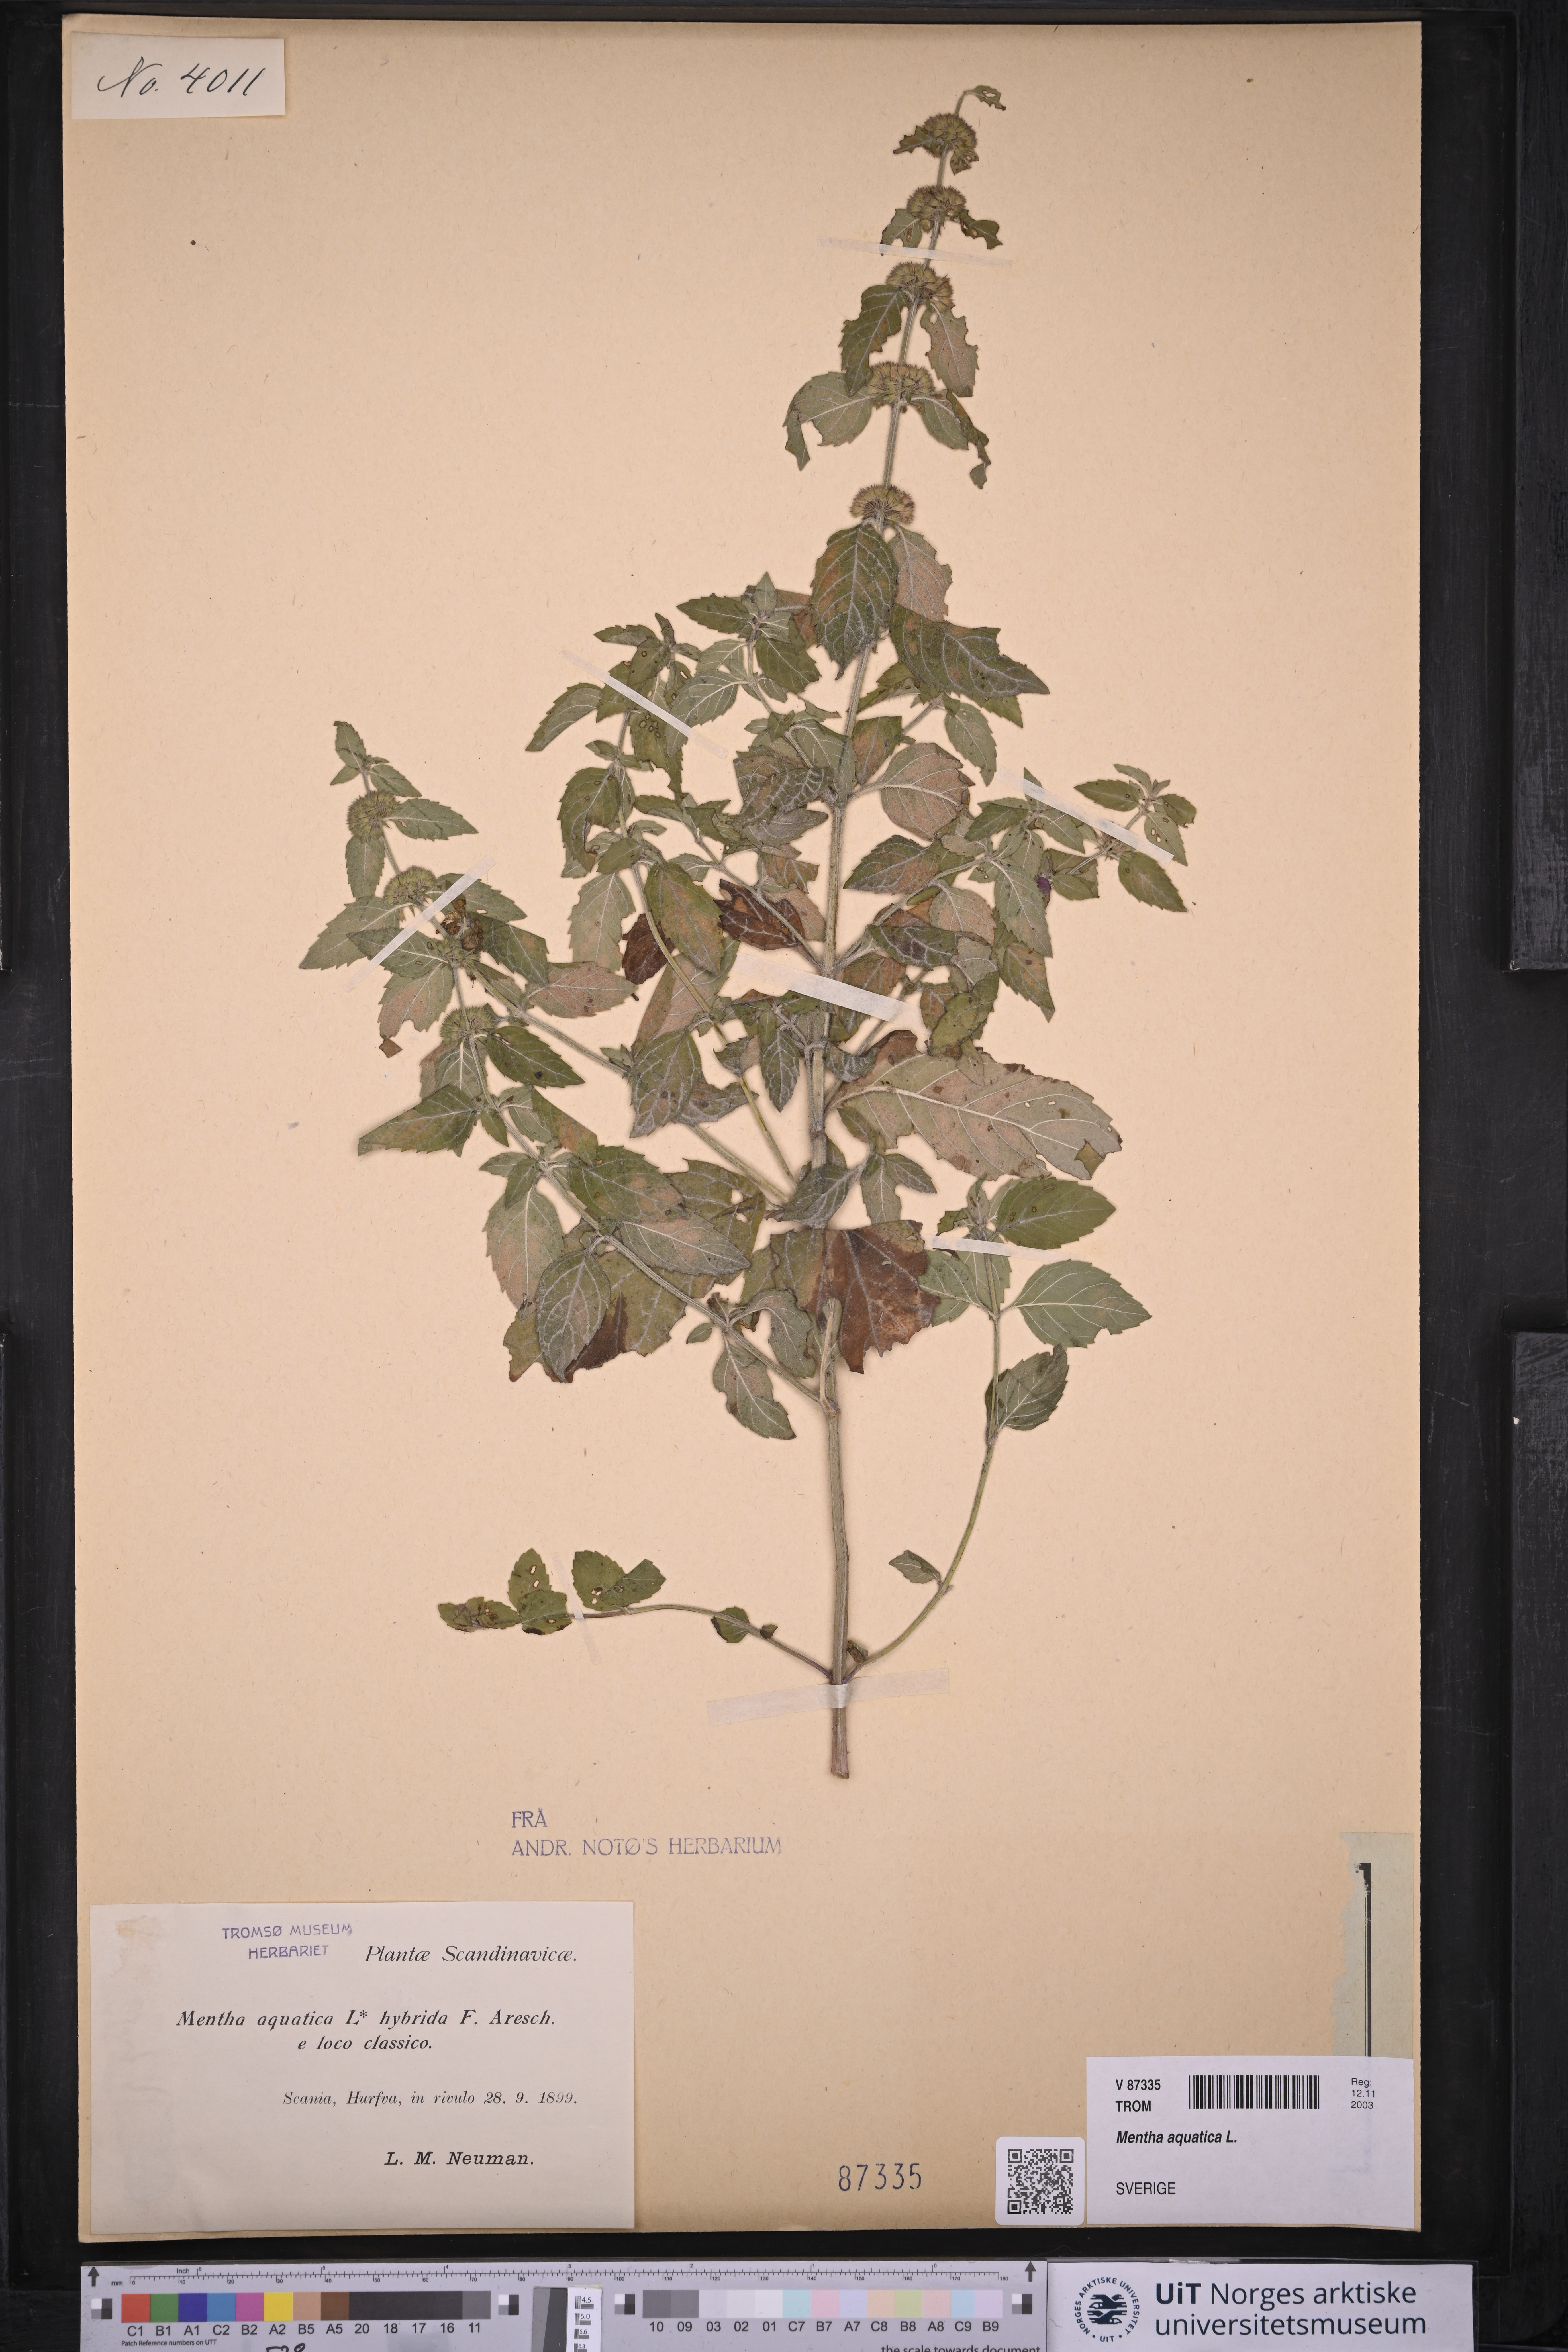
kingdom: Plantae
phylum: Tracheophyta
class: Magnoliopsida
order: Lamiales
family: Lamiaceae
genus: Mentha
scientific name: Mentha aquatica
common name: Water mint
